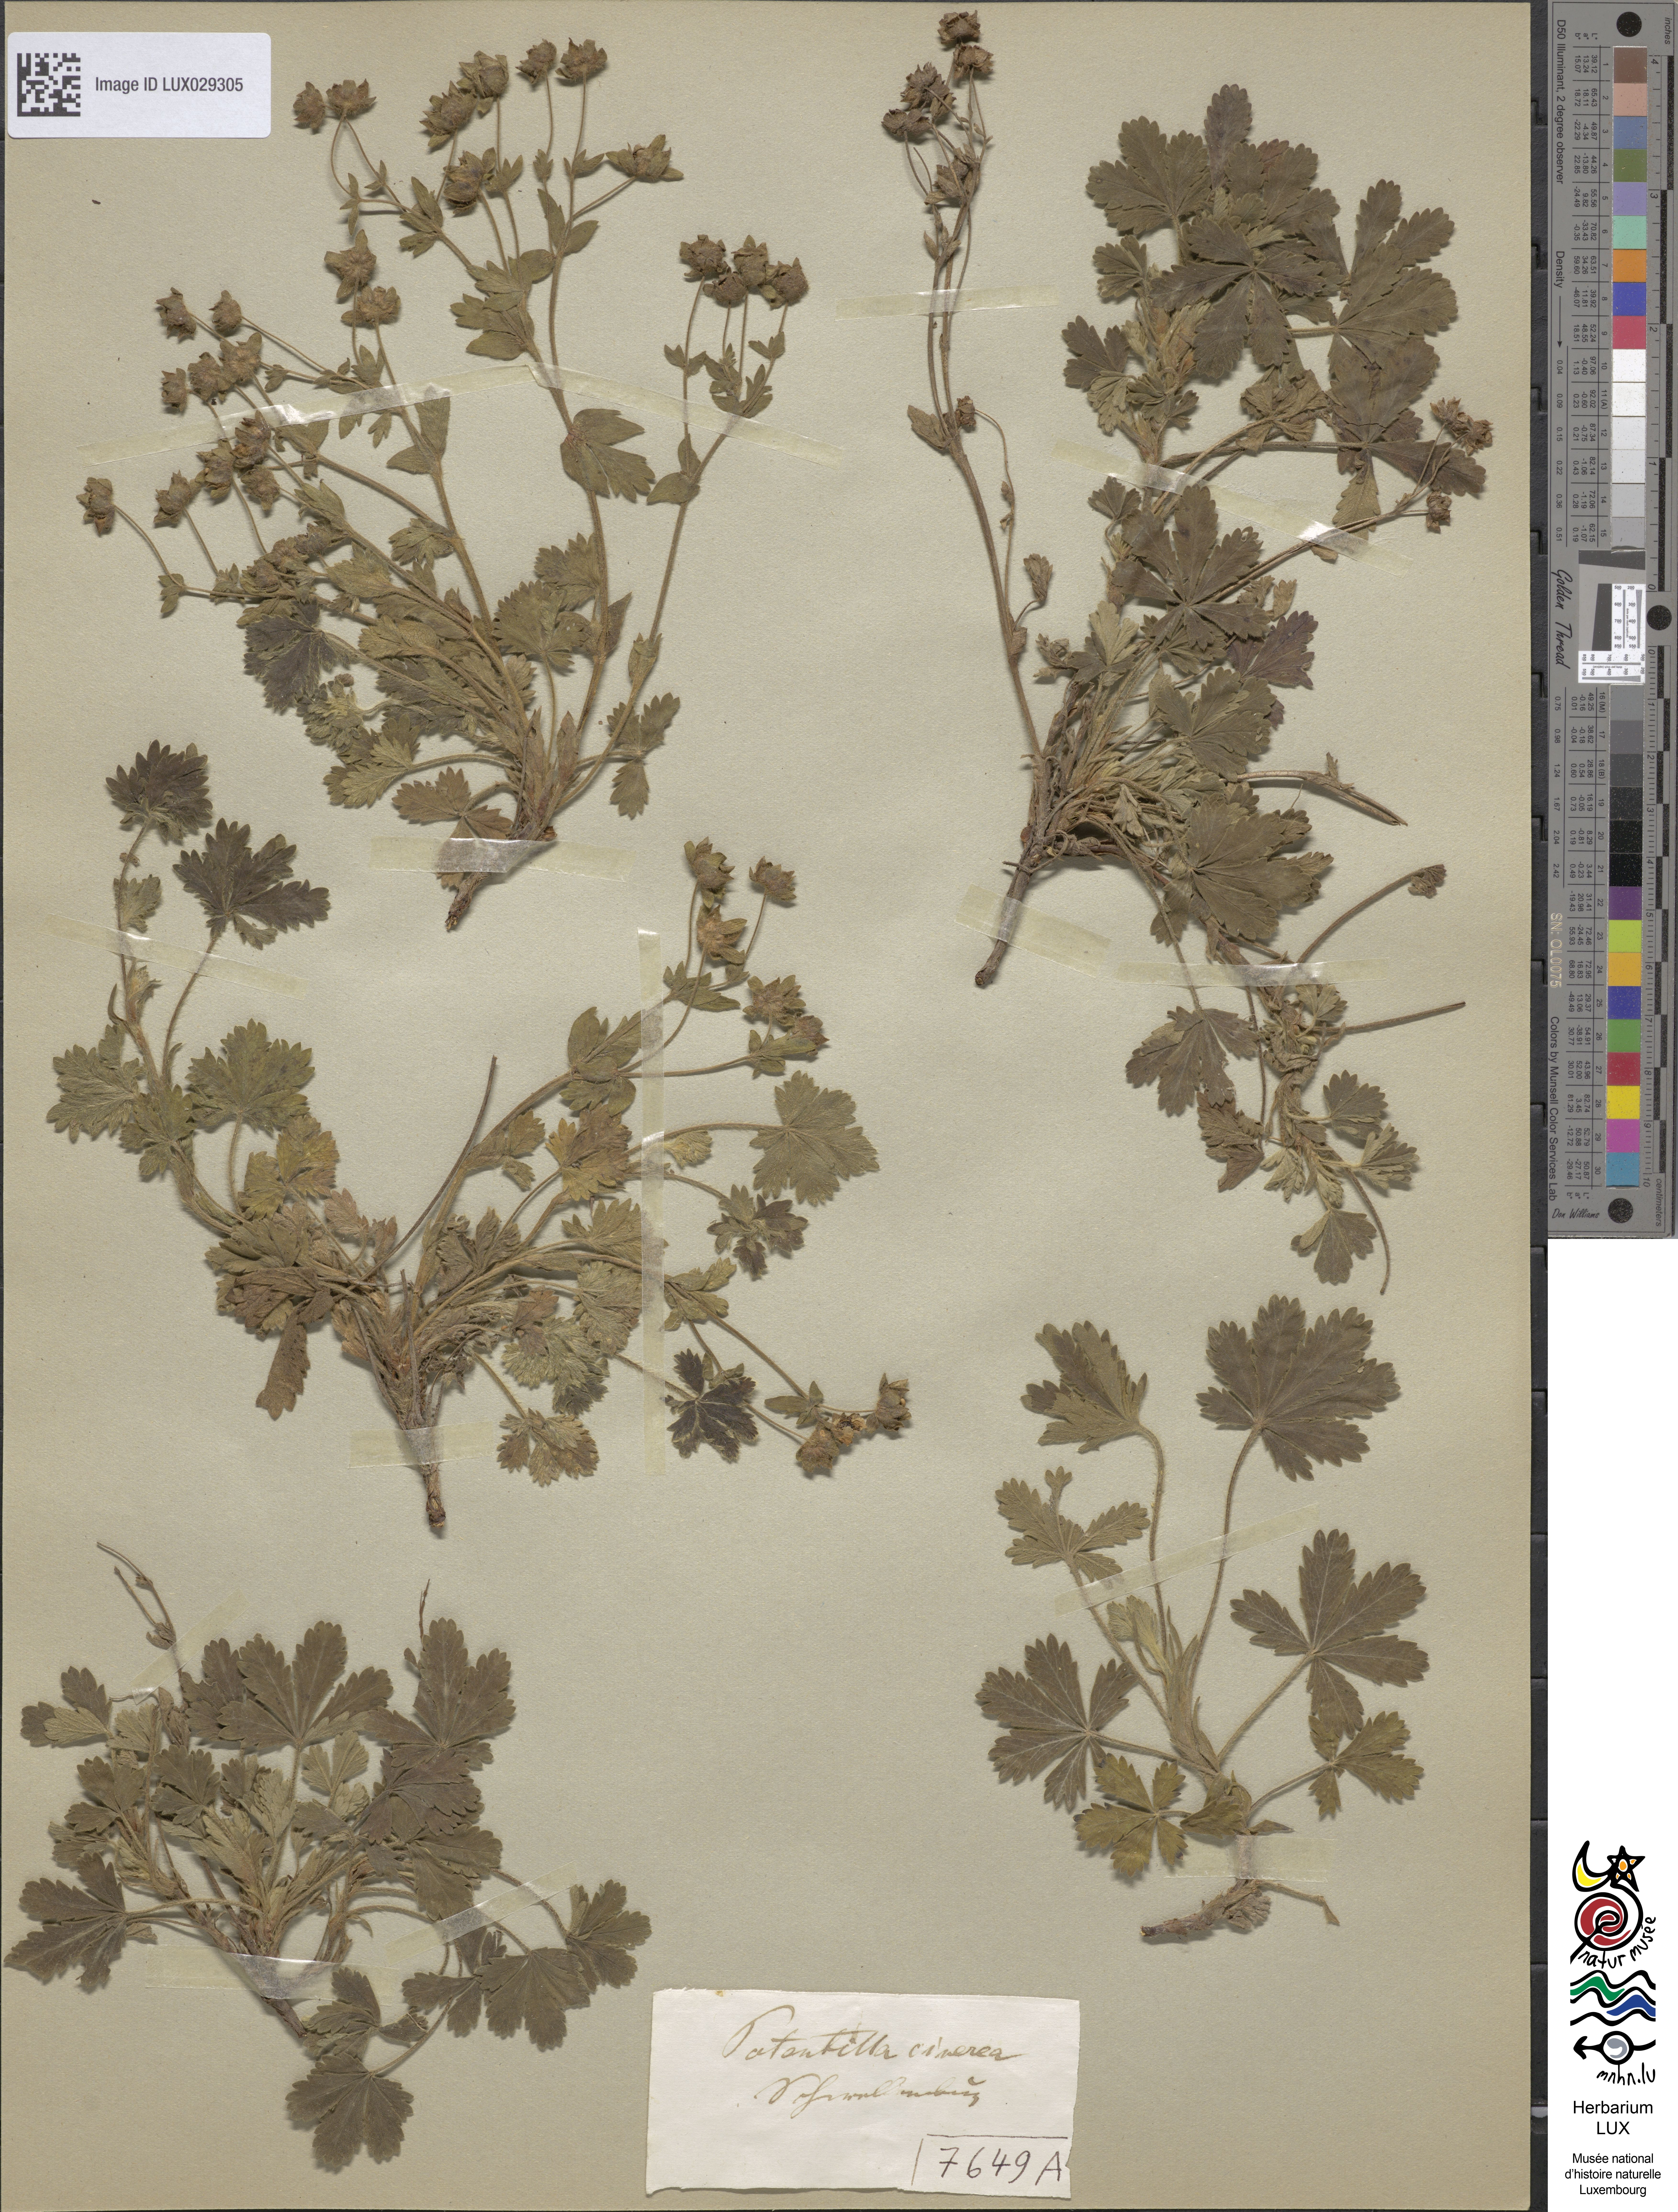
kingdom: Plantae
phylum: Tracheophyta
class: Magnoliopsida
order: Rosales
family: Rosaceae
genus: Potentilla
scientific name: Potentilla cinerea
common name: Ashy cinquefoil
